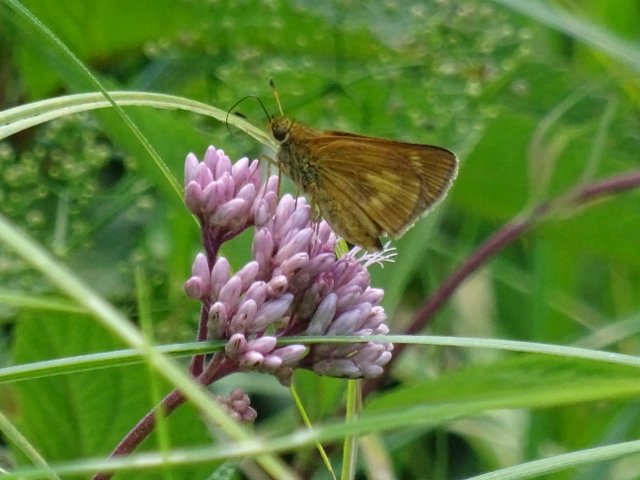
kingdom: Animalia
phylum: Arthropoda
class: Insecta
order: Lepidoptera
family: Hesperiidae
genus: Poanes
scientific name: Poanes massasoit
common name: Mulberry Wing
